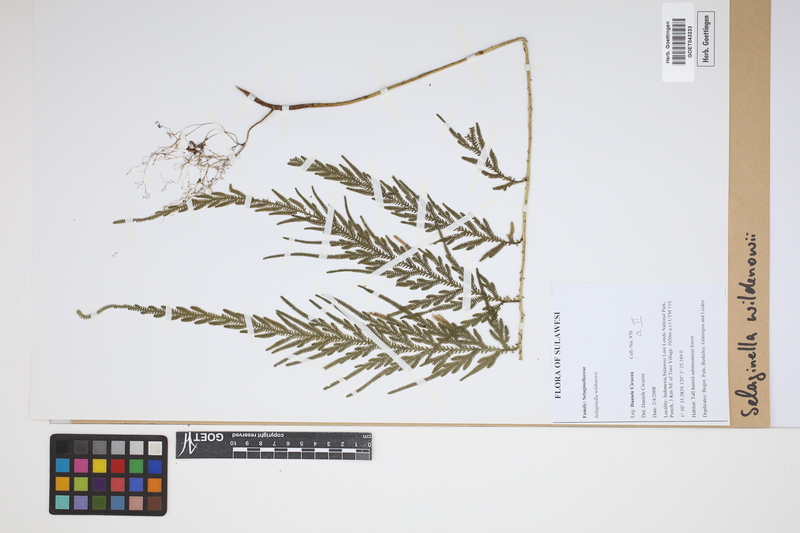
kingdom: Plantae
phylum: Tracheophyta
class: Lycopodiopsida
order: Selaginellales
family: Selaginellaceae
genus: Selaginella
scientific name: Selaginella willdenowii
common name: Willdenow's spikemoss
